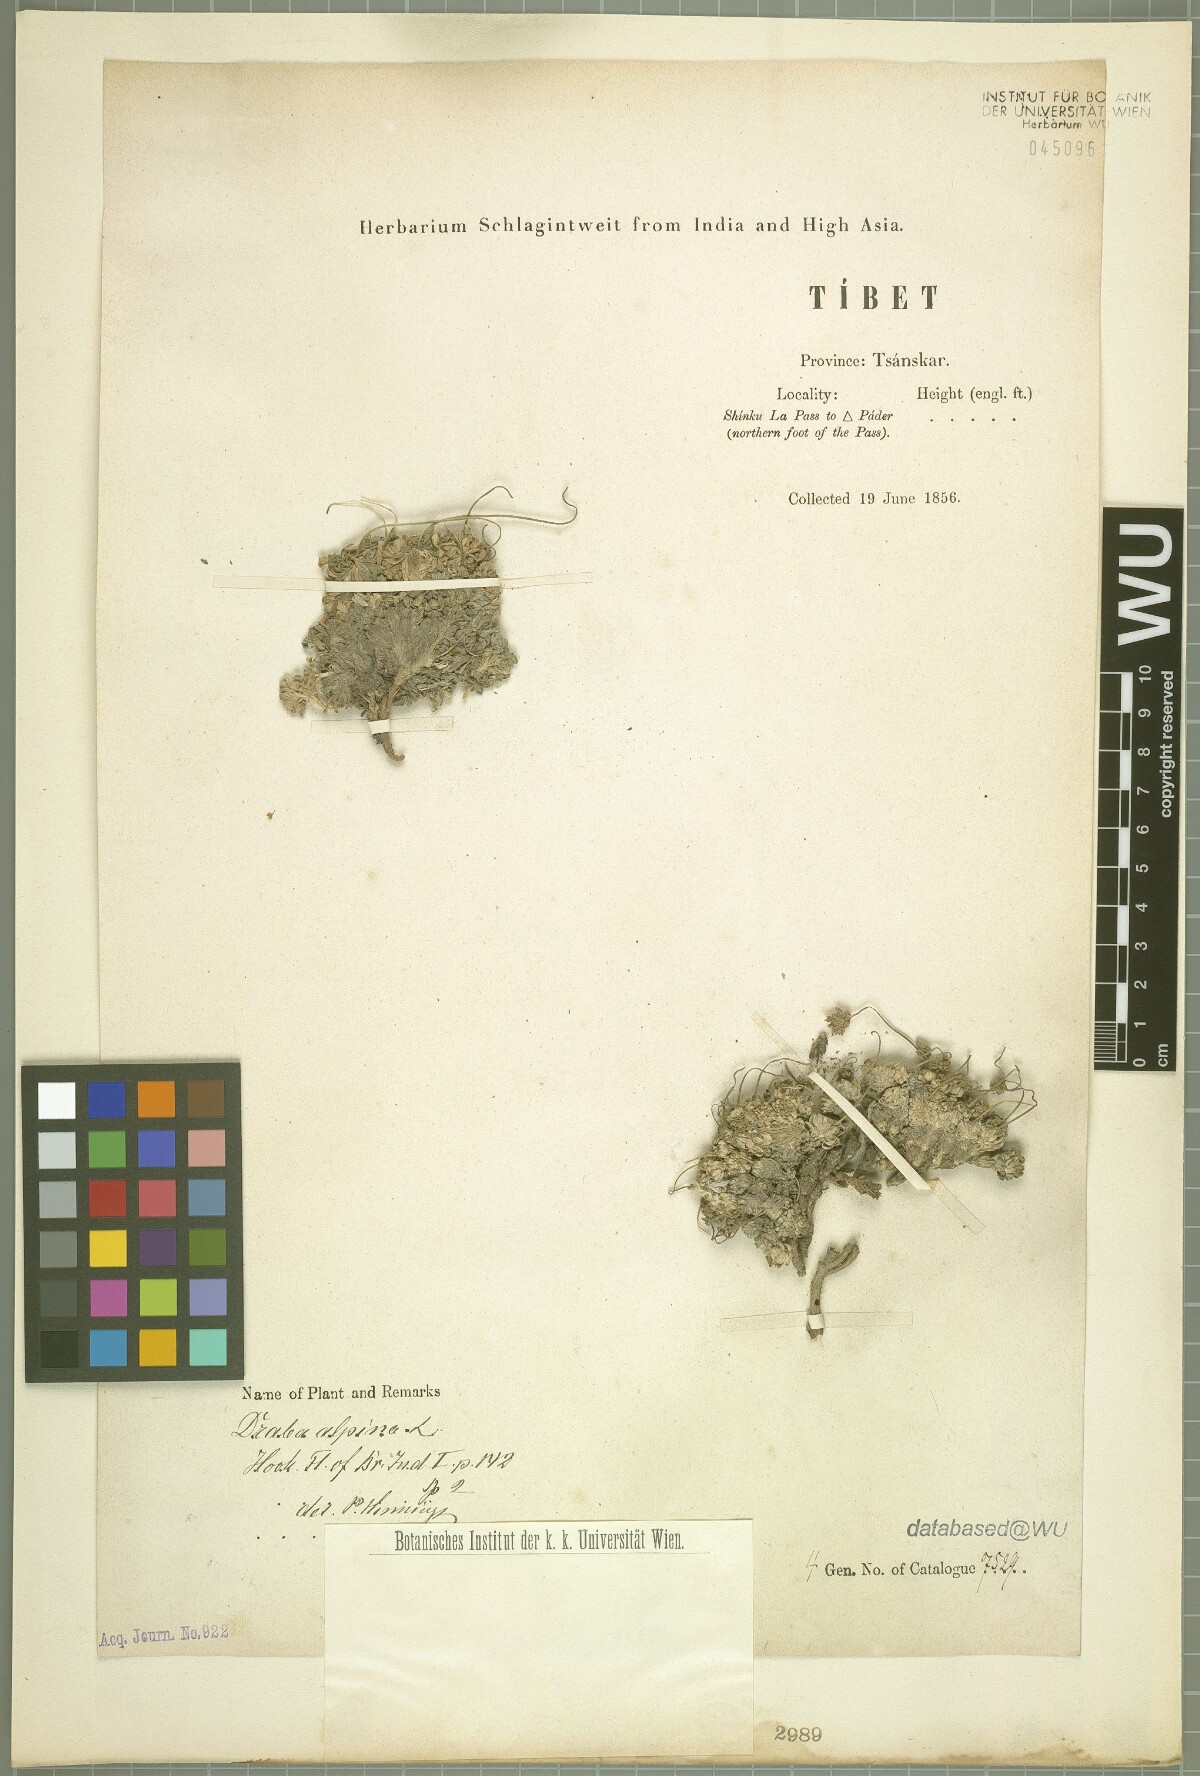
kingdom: Plantae
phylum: Tracheophyta
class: Magnoliopsida
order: Brassicales
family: Brassicaceae
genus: Draba
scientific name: Draba alpina
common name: Alpine draba
